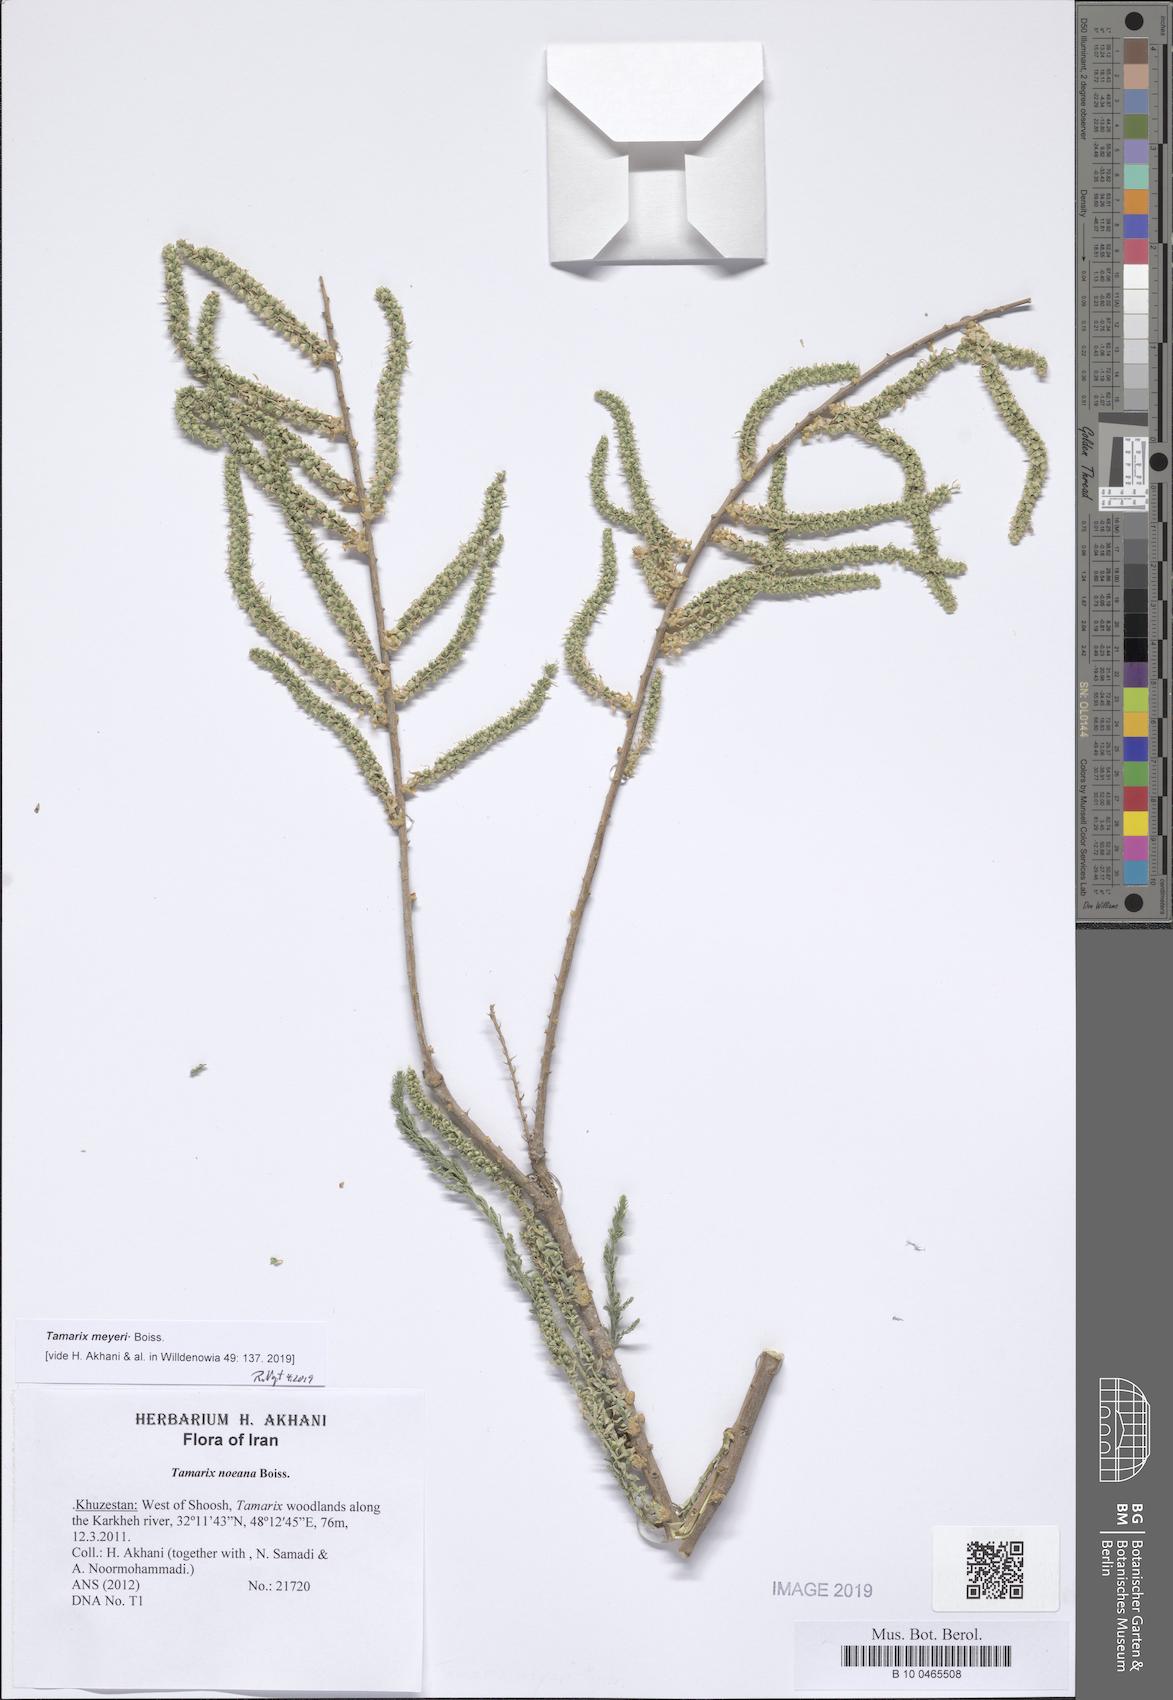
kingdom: Plantae
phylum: Tracheophyta
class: Magnoliopsida
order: Caryophyllales
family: Tamaricaceae
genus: Tamarix
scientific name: Tamarix meyeri
